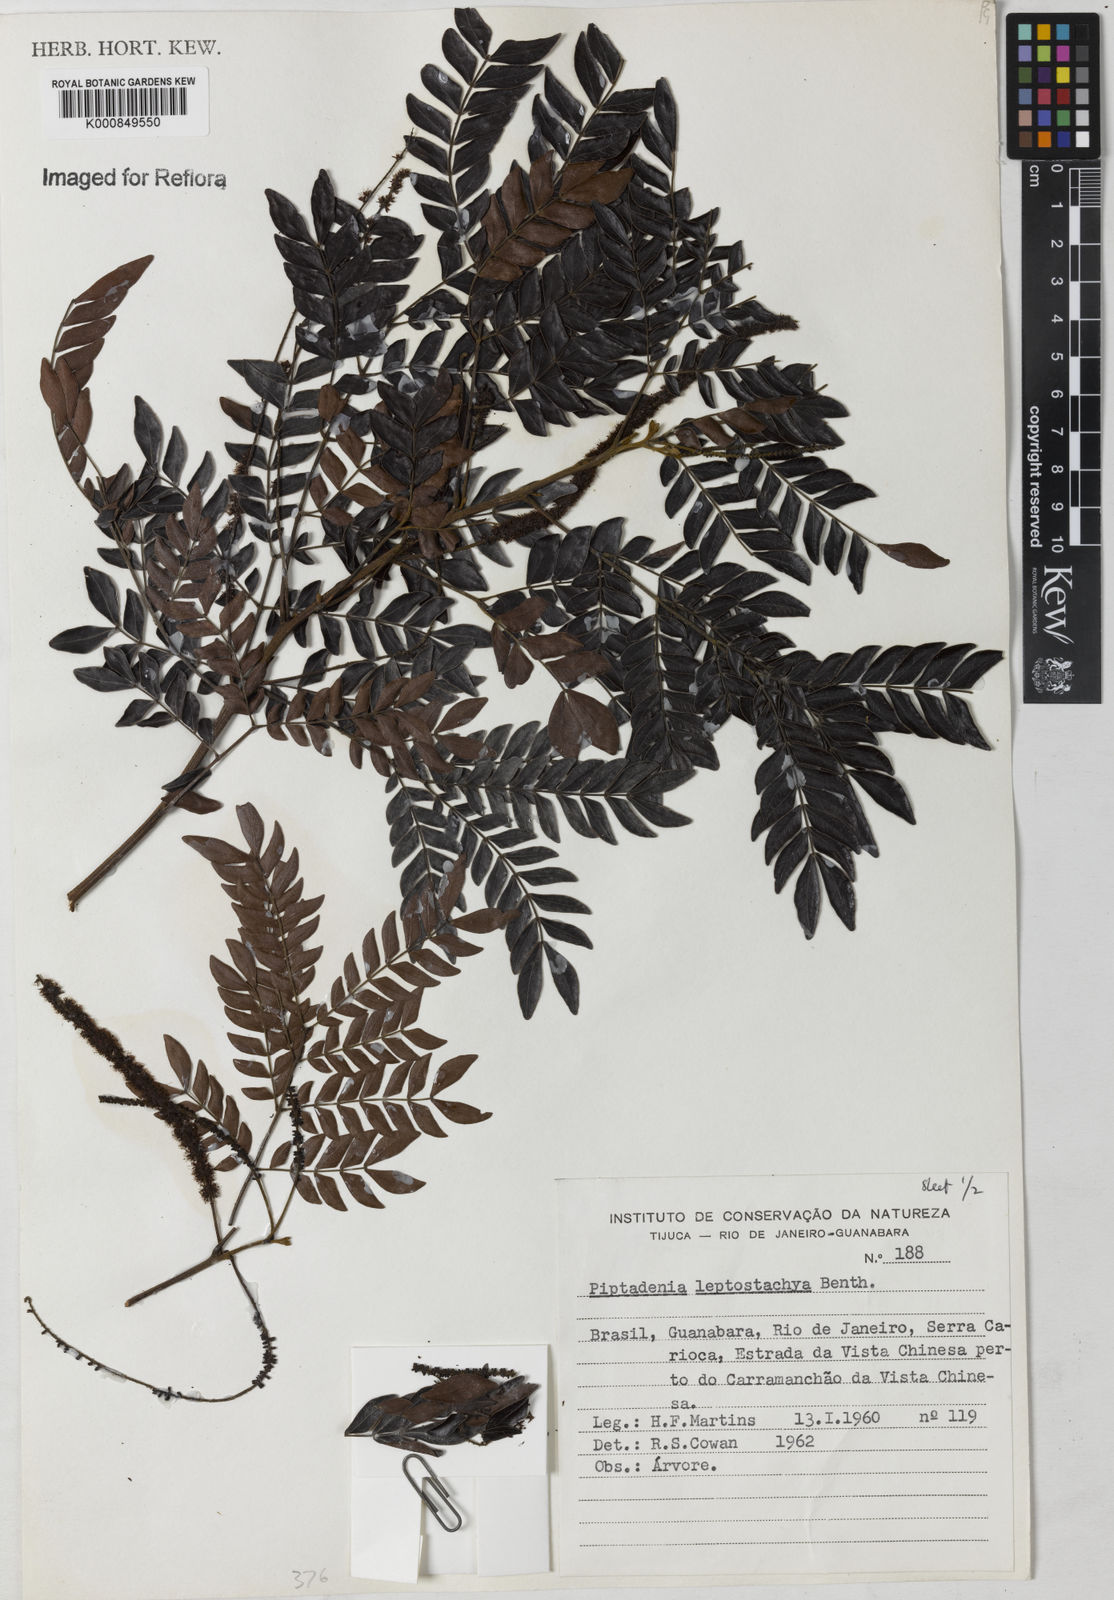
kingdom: Plantae
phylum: Tracheophyta
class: Magnoliopsida
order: Fabales
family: Fabaceae
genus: Pseudopiptadenia
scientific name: Pseudopiptadenia leptostachya
